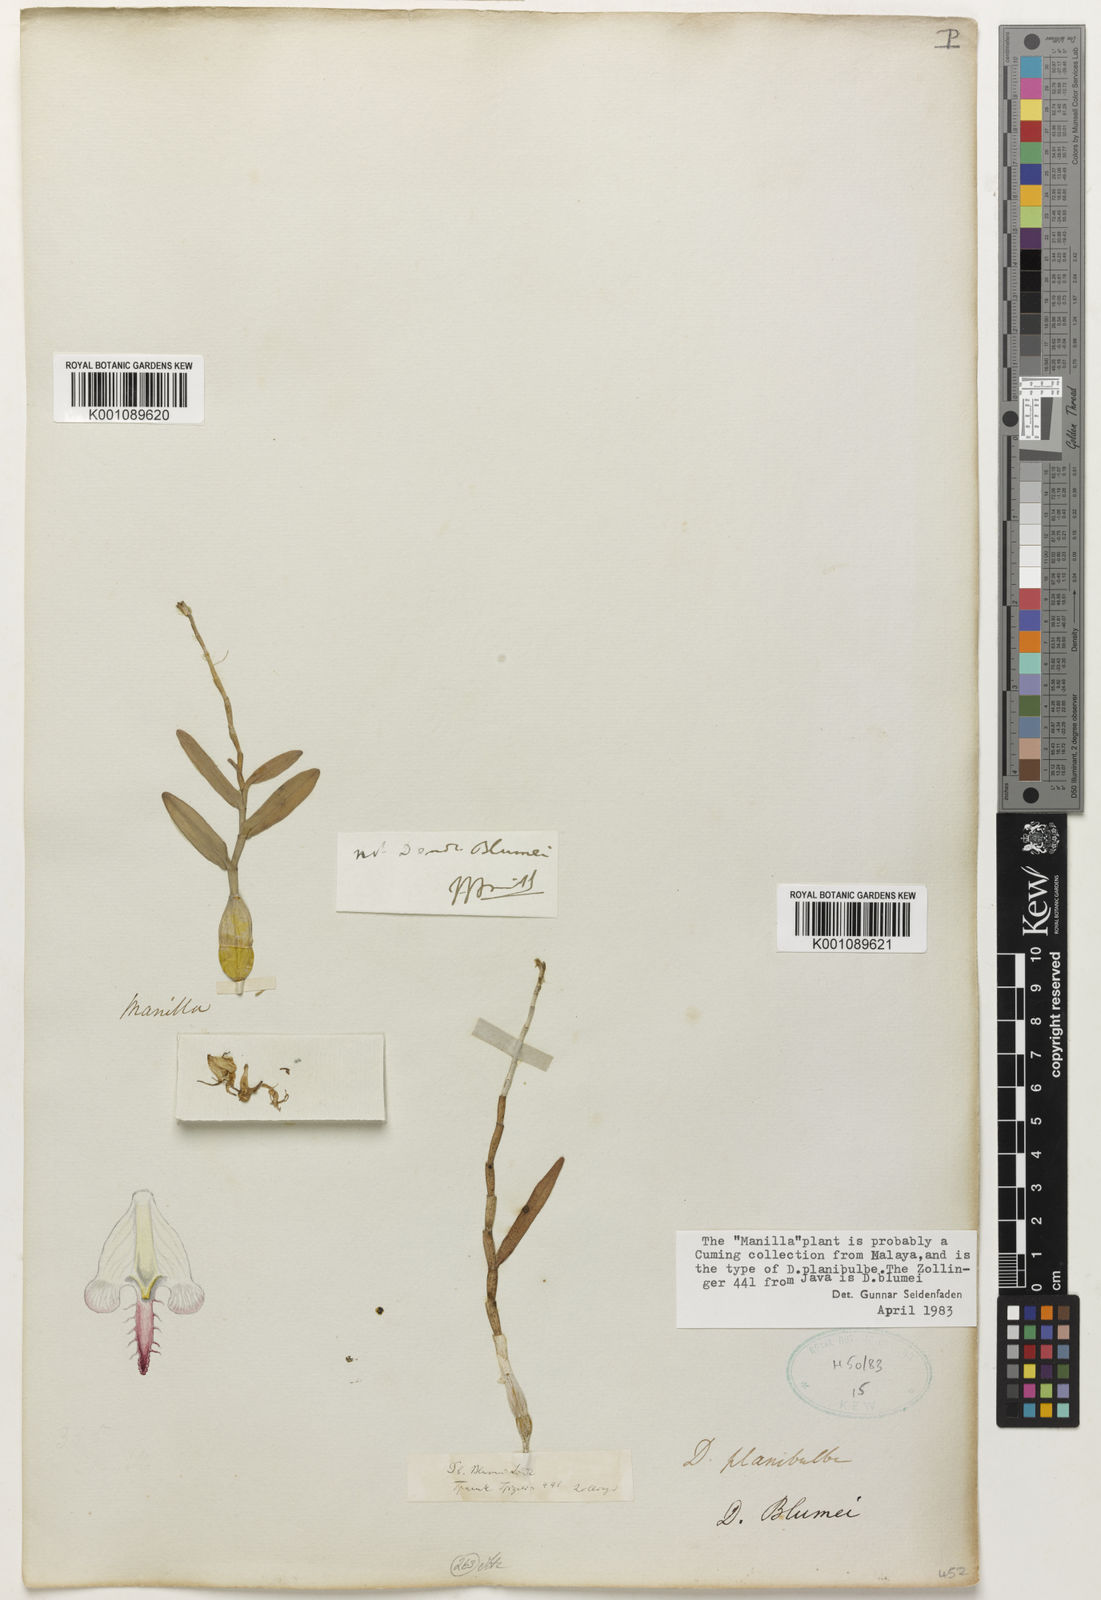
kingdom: Plantae
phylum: Tracheophyta
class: Liliopsida
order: Asparagales
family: Orchidaceae
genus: Dendrobium
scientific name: Dendrobium planibulbe
